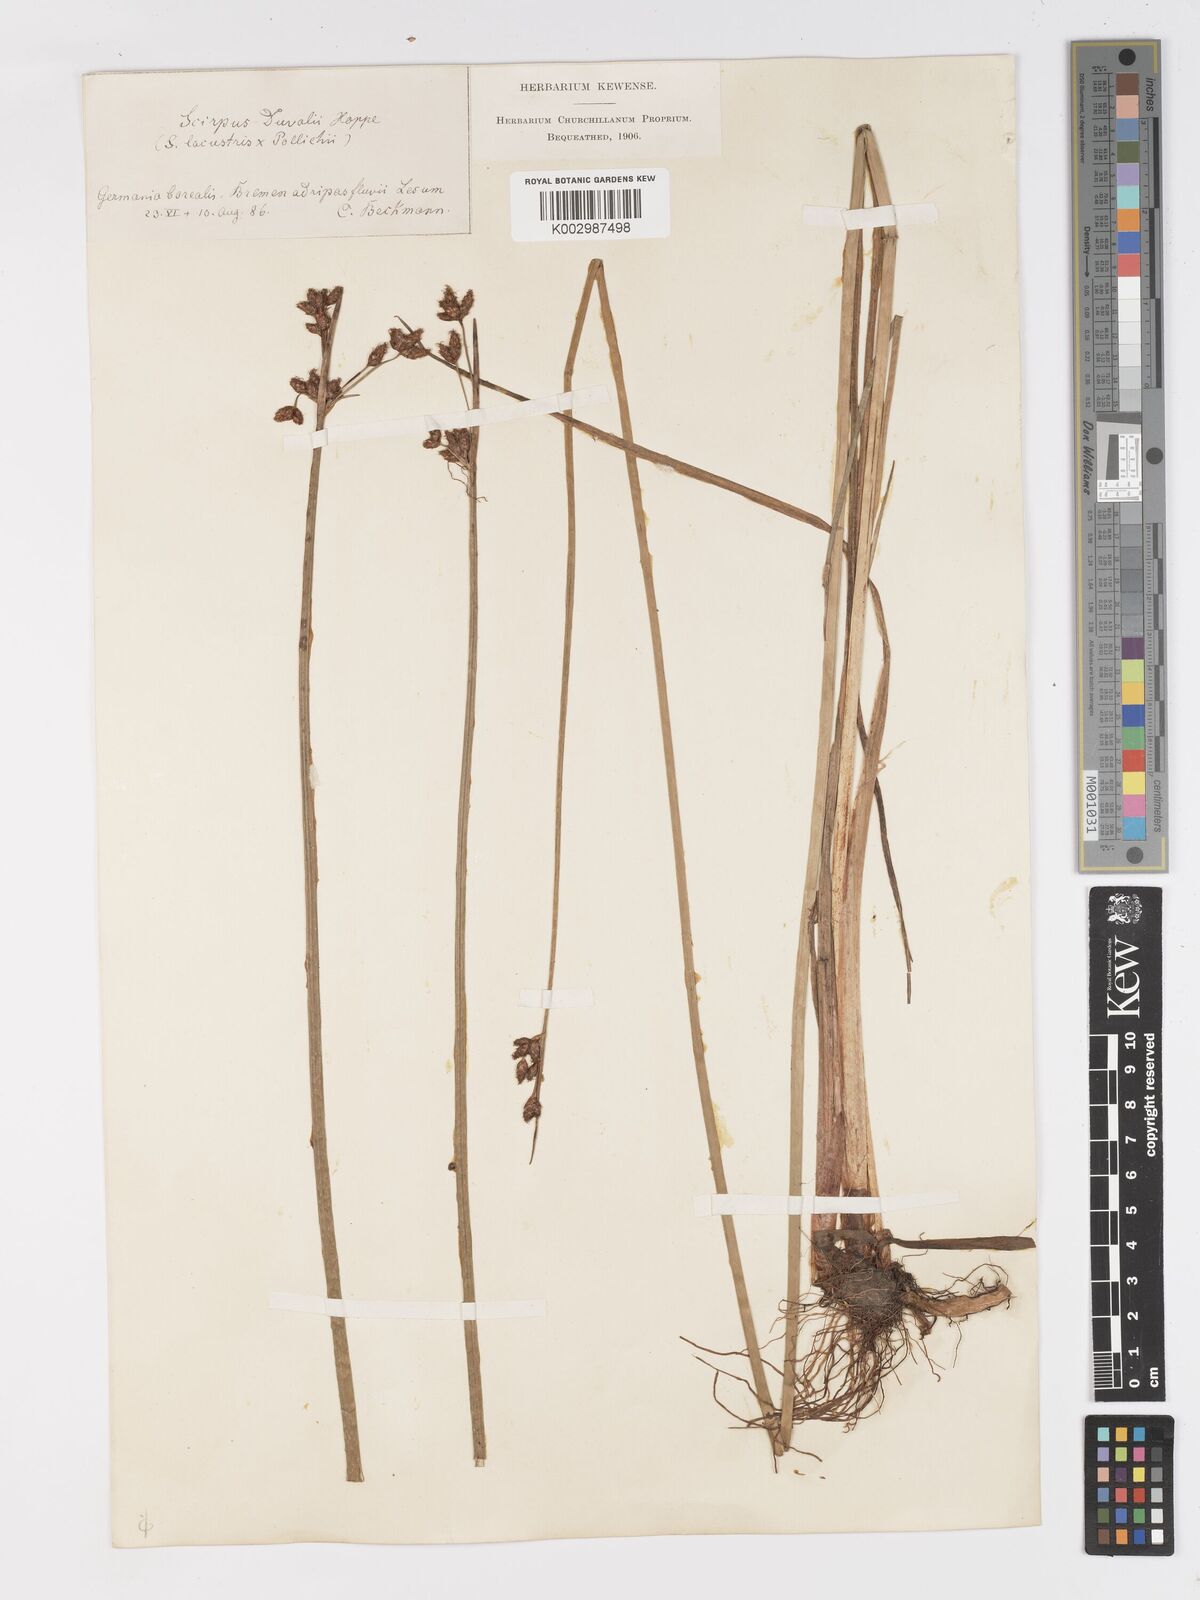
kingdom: Plantae
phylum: Tracheophyta
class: Liliopsida
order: Poales
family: Cyperaceae
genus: Schoenoplectus
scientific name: Schoenoplectus lacustris
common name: Common club-rush
